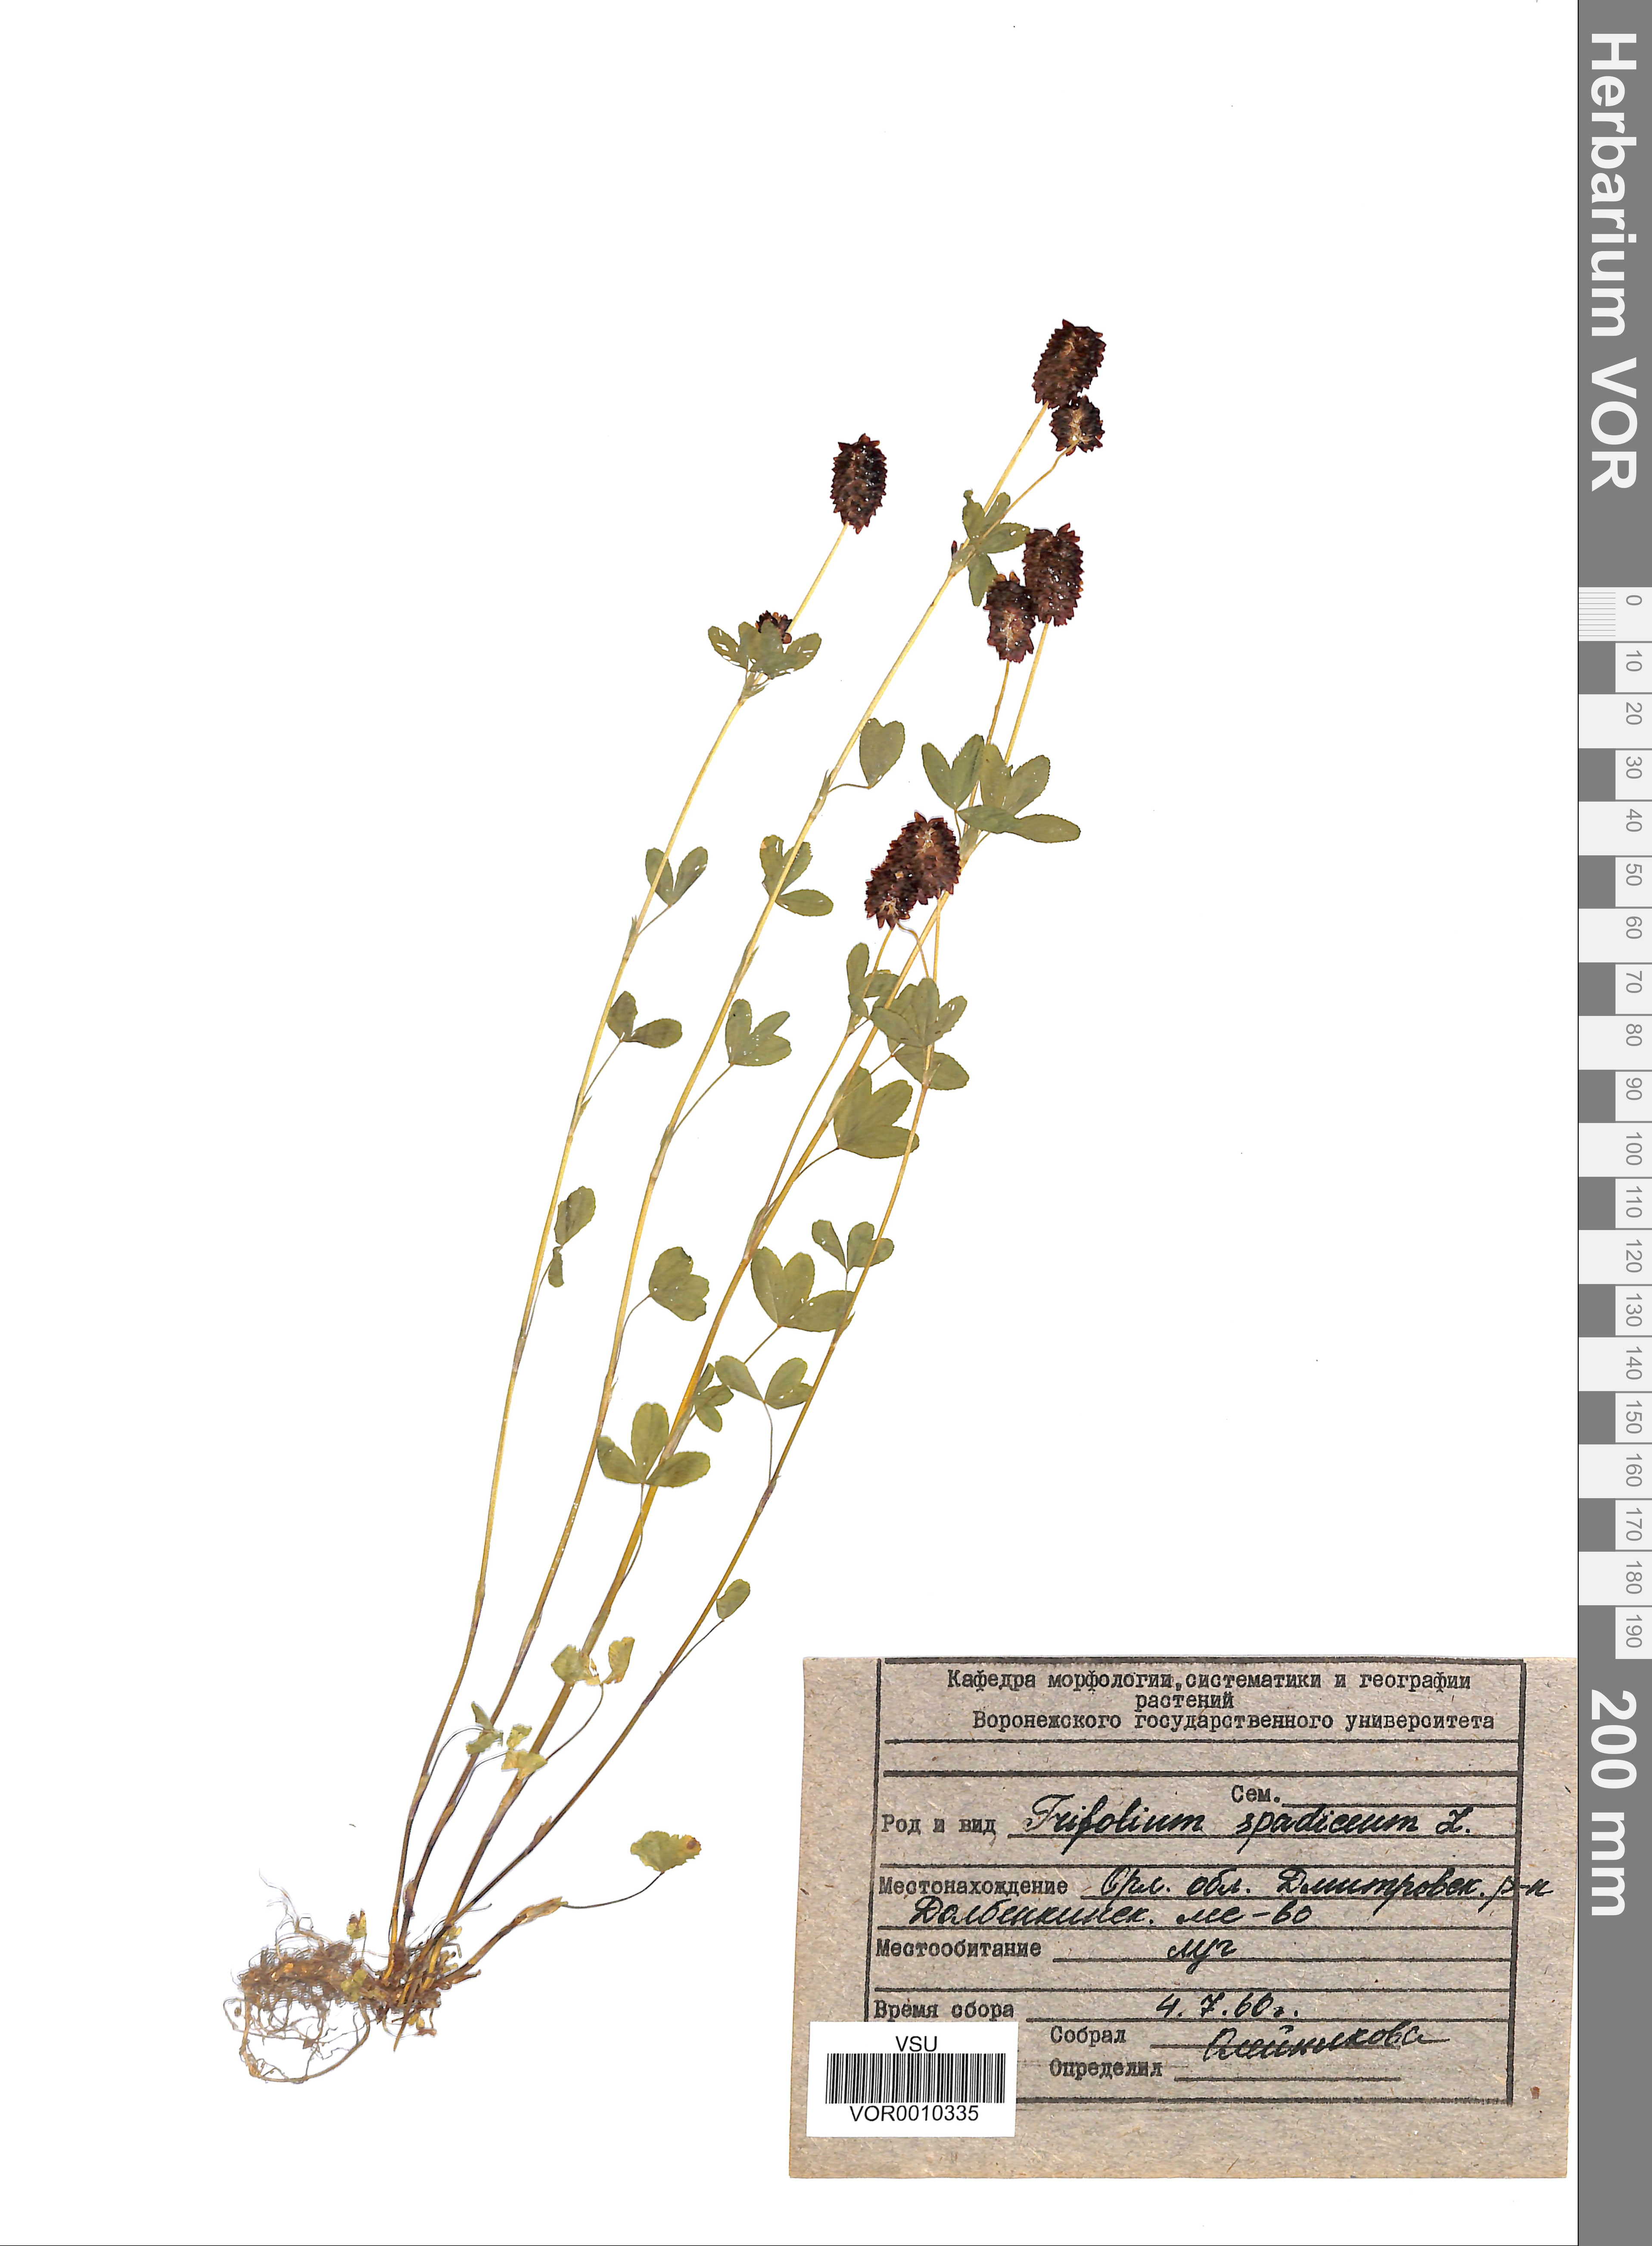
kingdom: Plantae
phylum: Tracheophyta
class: Magnoliopsida
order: Fabales
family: Fabaceae
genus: Trifolium
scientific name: Trifolium spadiceum
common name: Brown moor clover
